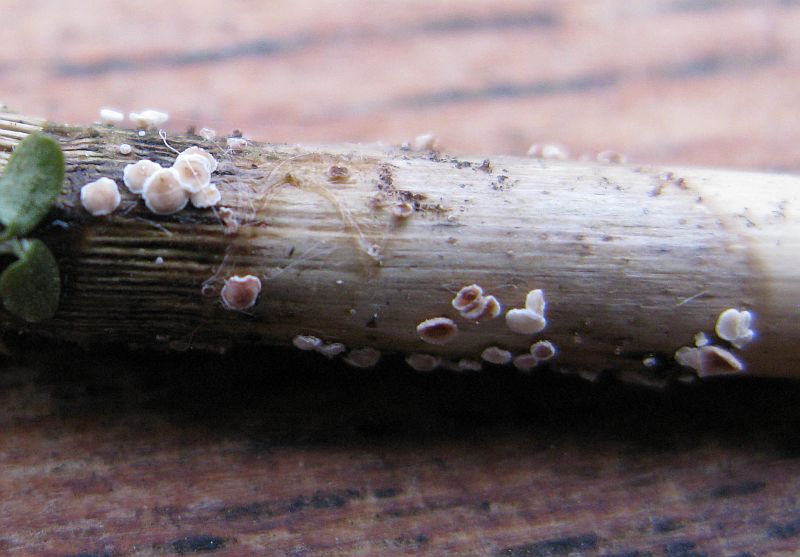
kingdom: Fungi
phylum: Ascomycota
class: Leotiomycetes
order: Helotiales
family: Lachnaceae
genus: Lachnum
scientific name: Lachnum controversum
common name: tagrør-frynseskive
